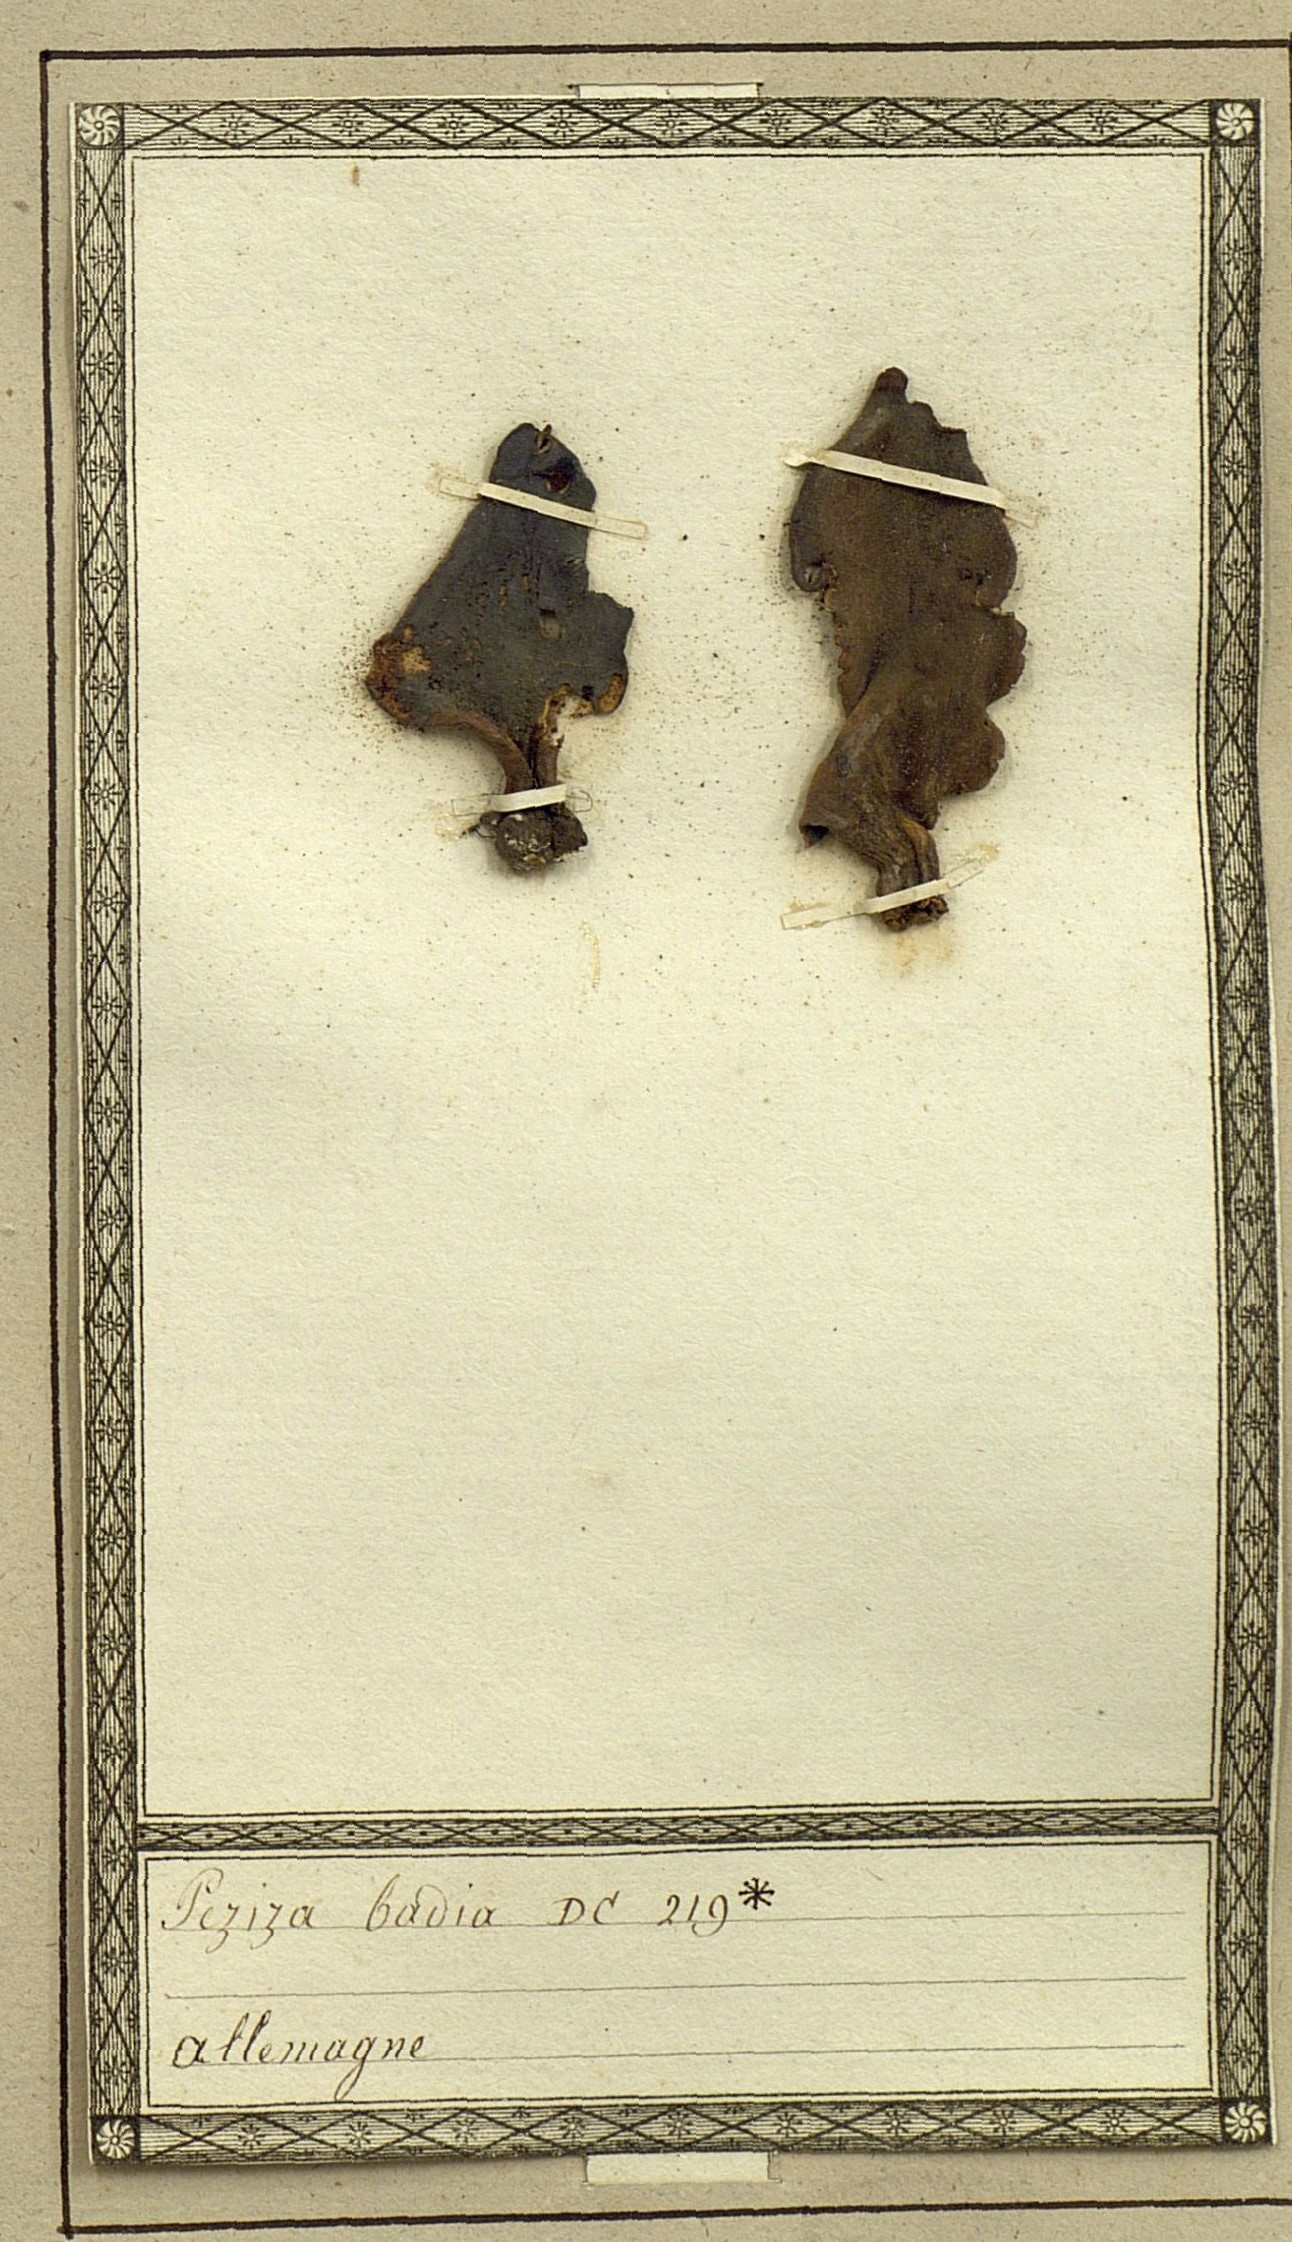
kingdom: Fungi
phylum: Ascomycota
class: Pezizomycetes
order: Pezizales
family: Pezizaceae
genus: Legaliana
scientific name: Legaliana badia
